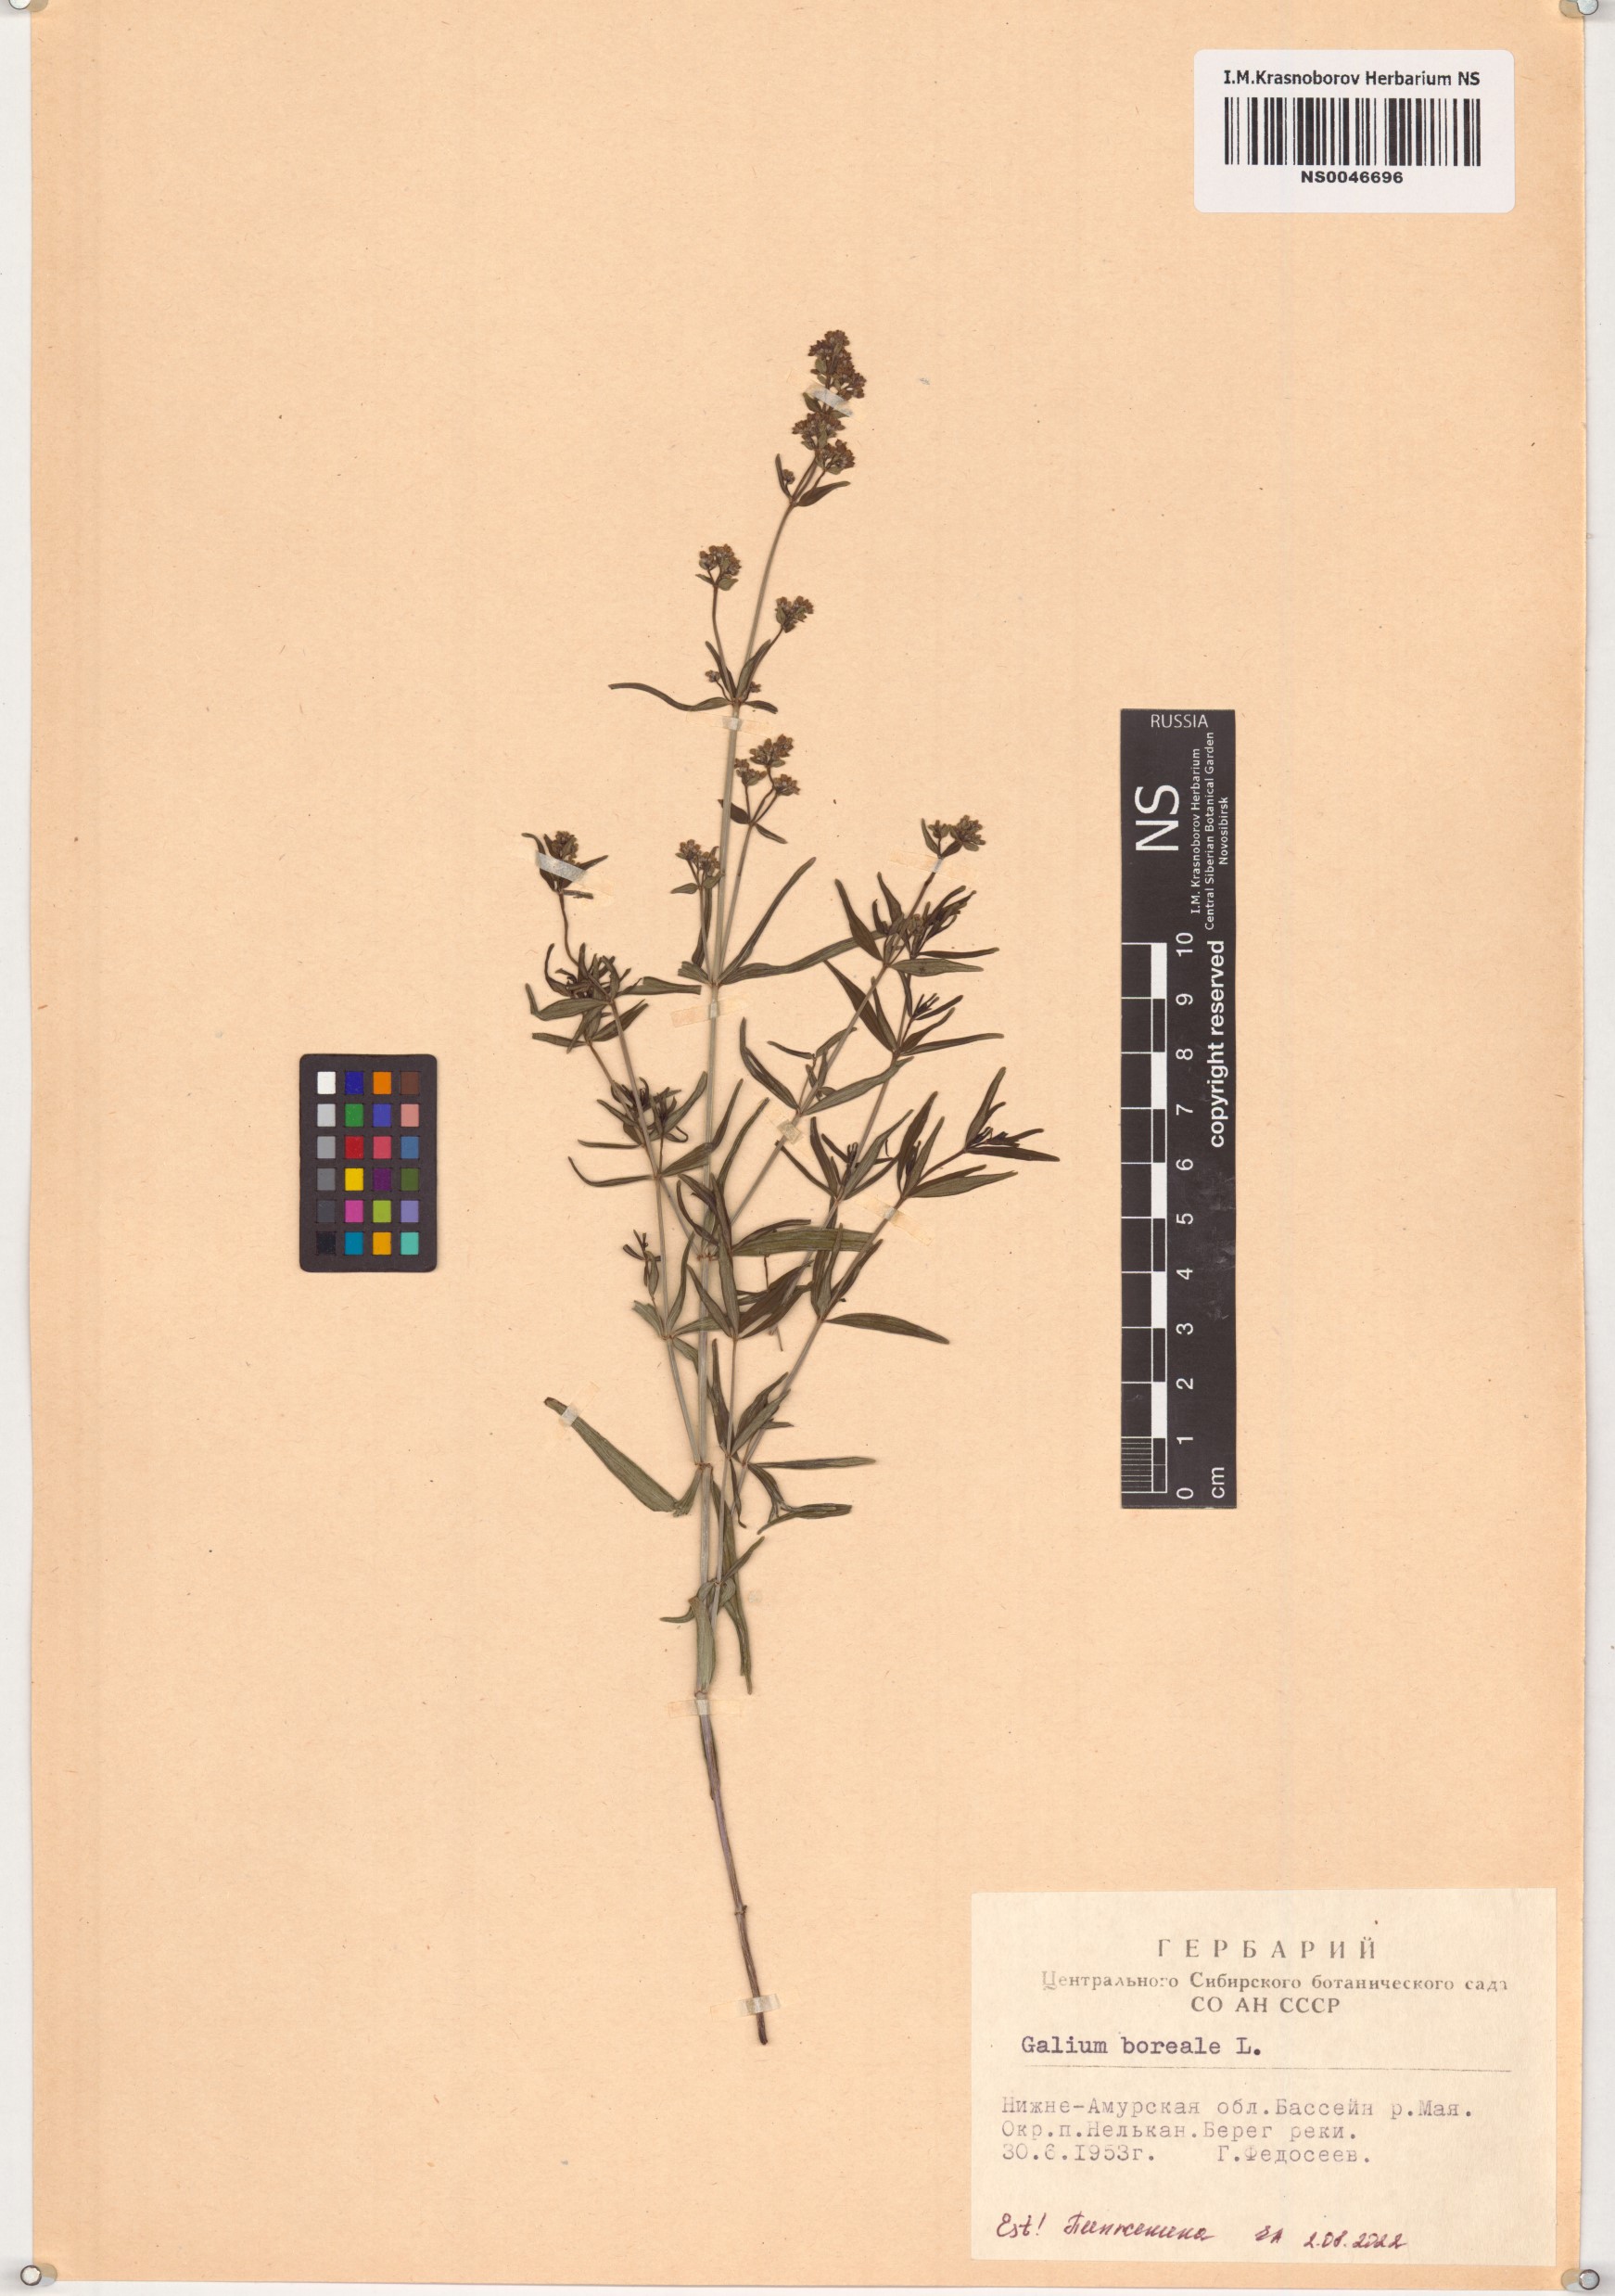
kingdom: Plantae
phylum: Tracheophyta
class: Magnoliopsida
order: Gentianales
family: Rubiaceae
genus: Galium
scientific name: Galium boreale
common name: Northern bedstraw
